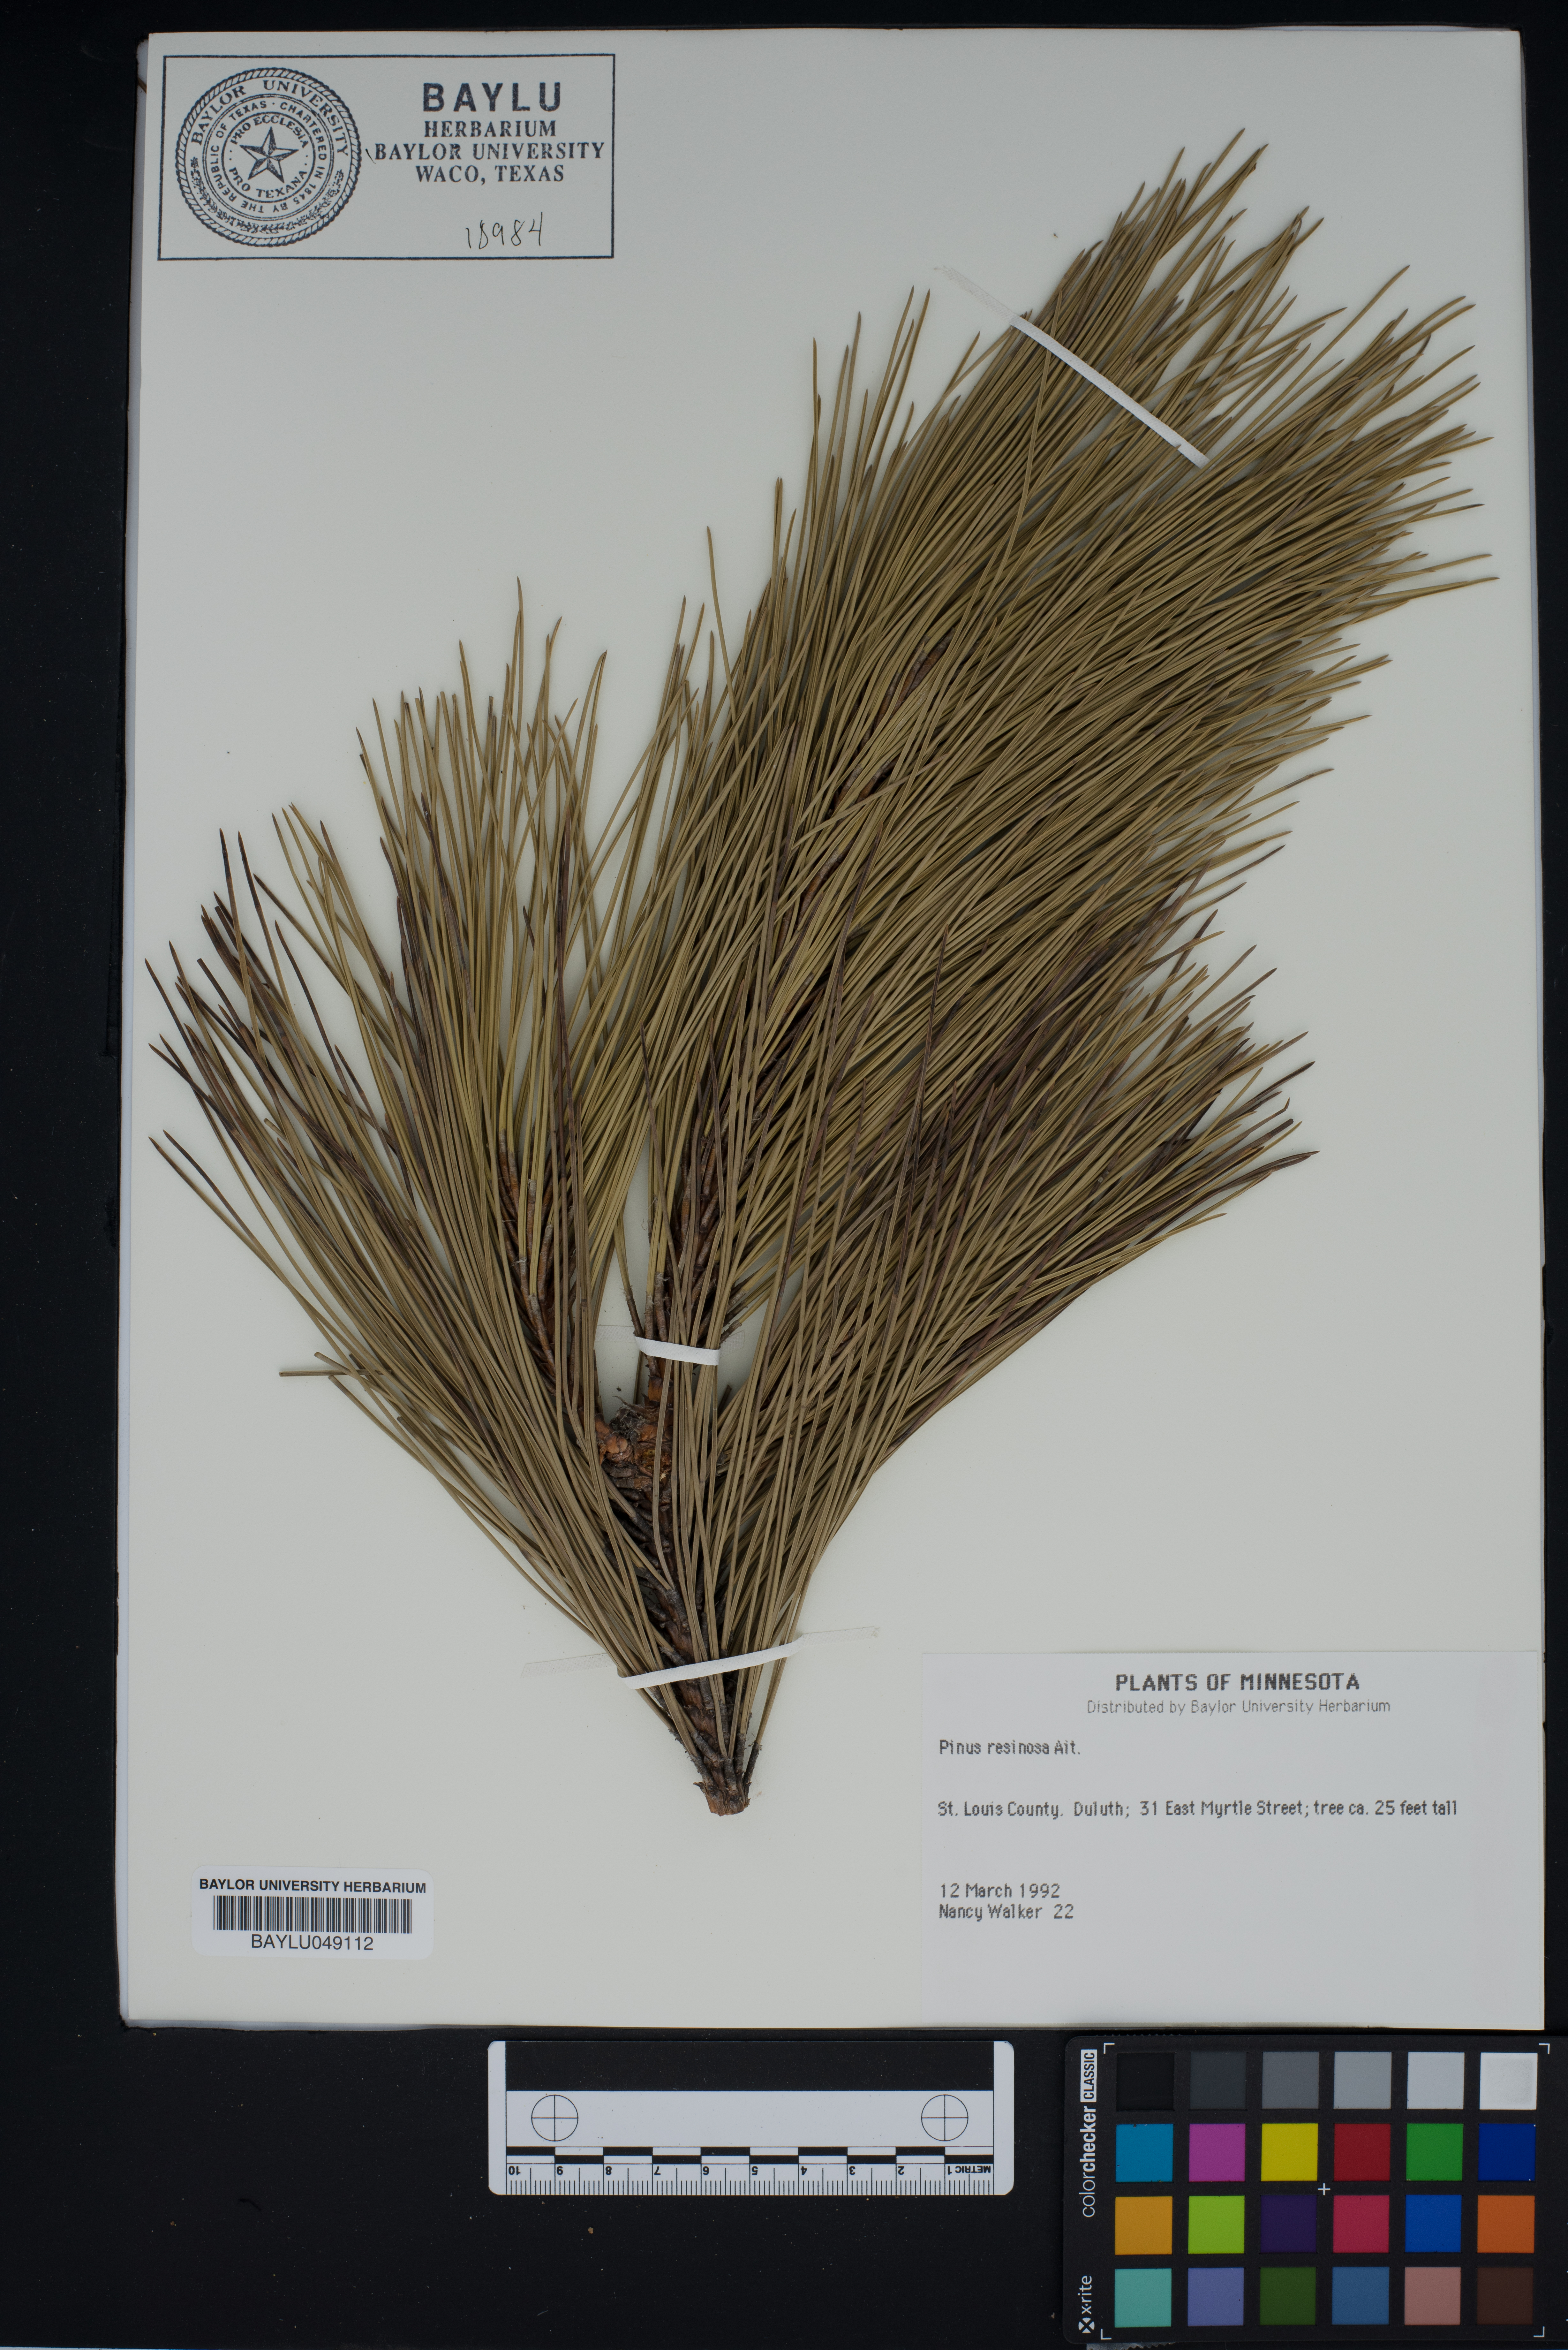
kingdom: Plantae
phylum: Tracheophyta
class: Pinopsida
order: Pinales
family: Pinaceae
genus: Pinus
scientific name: Pinus resinosa
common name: Norway pine
